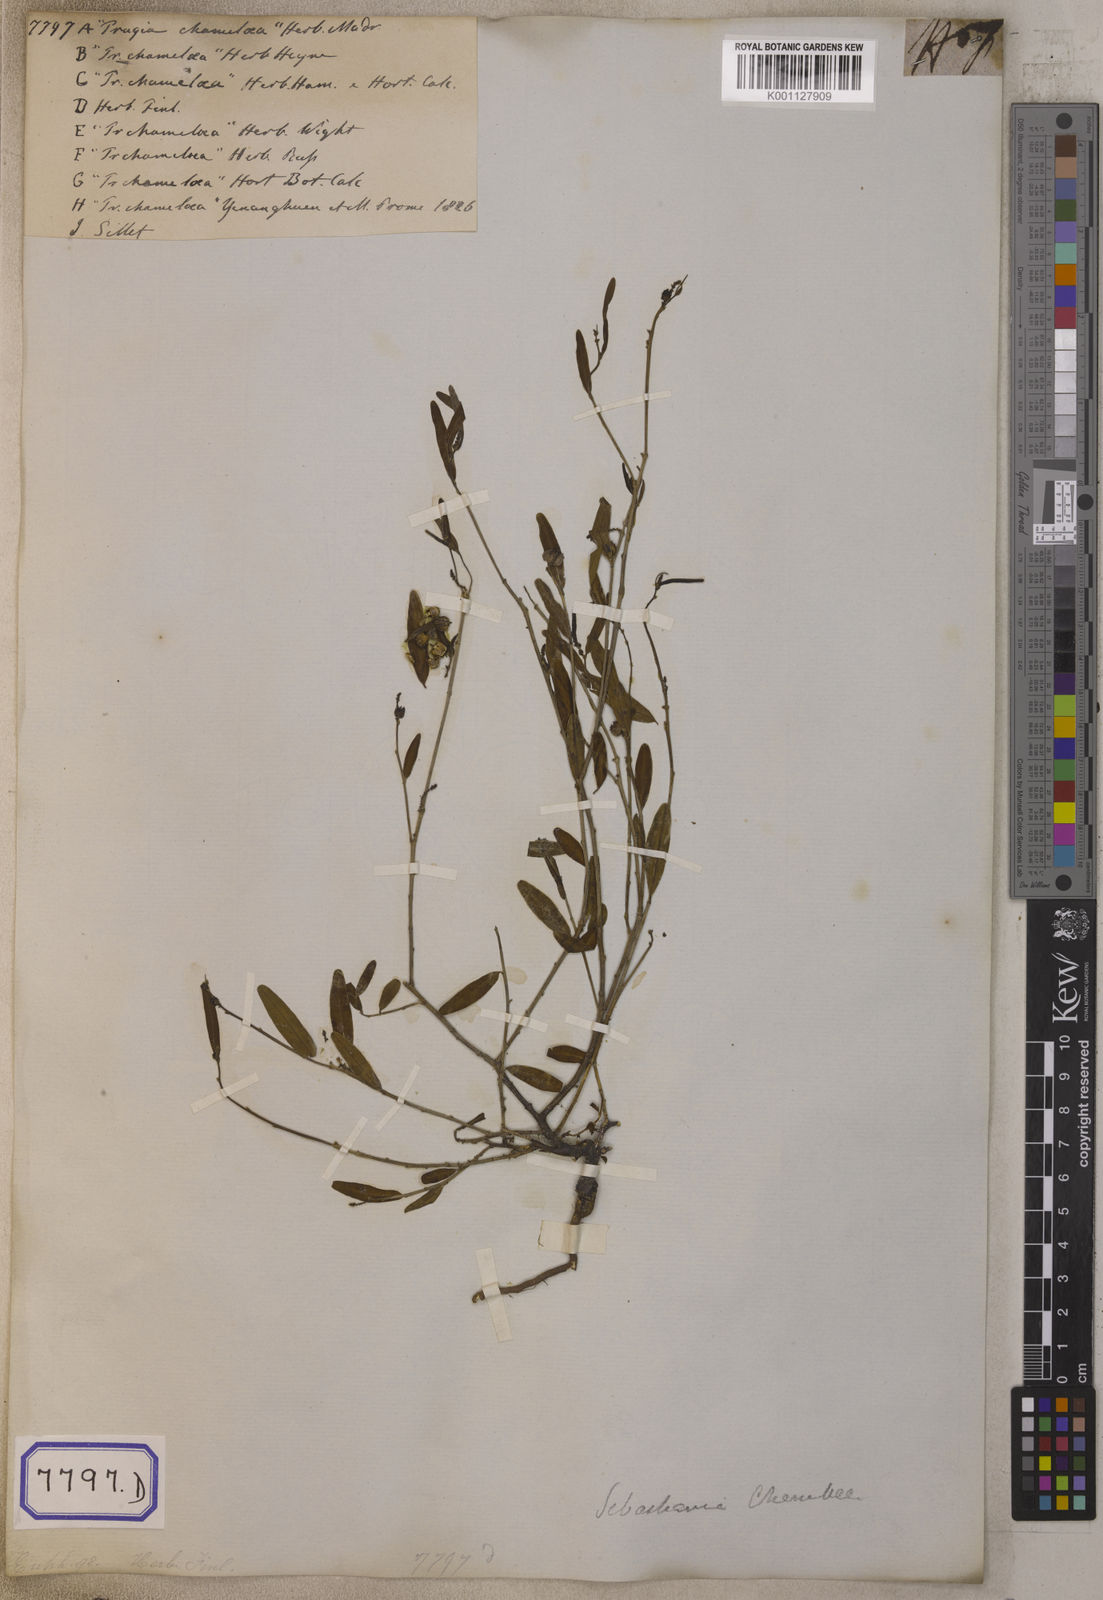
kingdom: Plantae
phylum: Tracheophyta
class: Magnoliopsida
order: Malpighiales
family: Euphorbiaceae
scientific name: Euphorbiaceae
